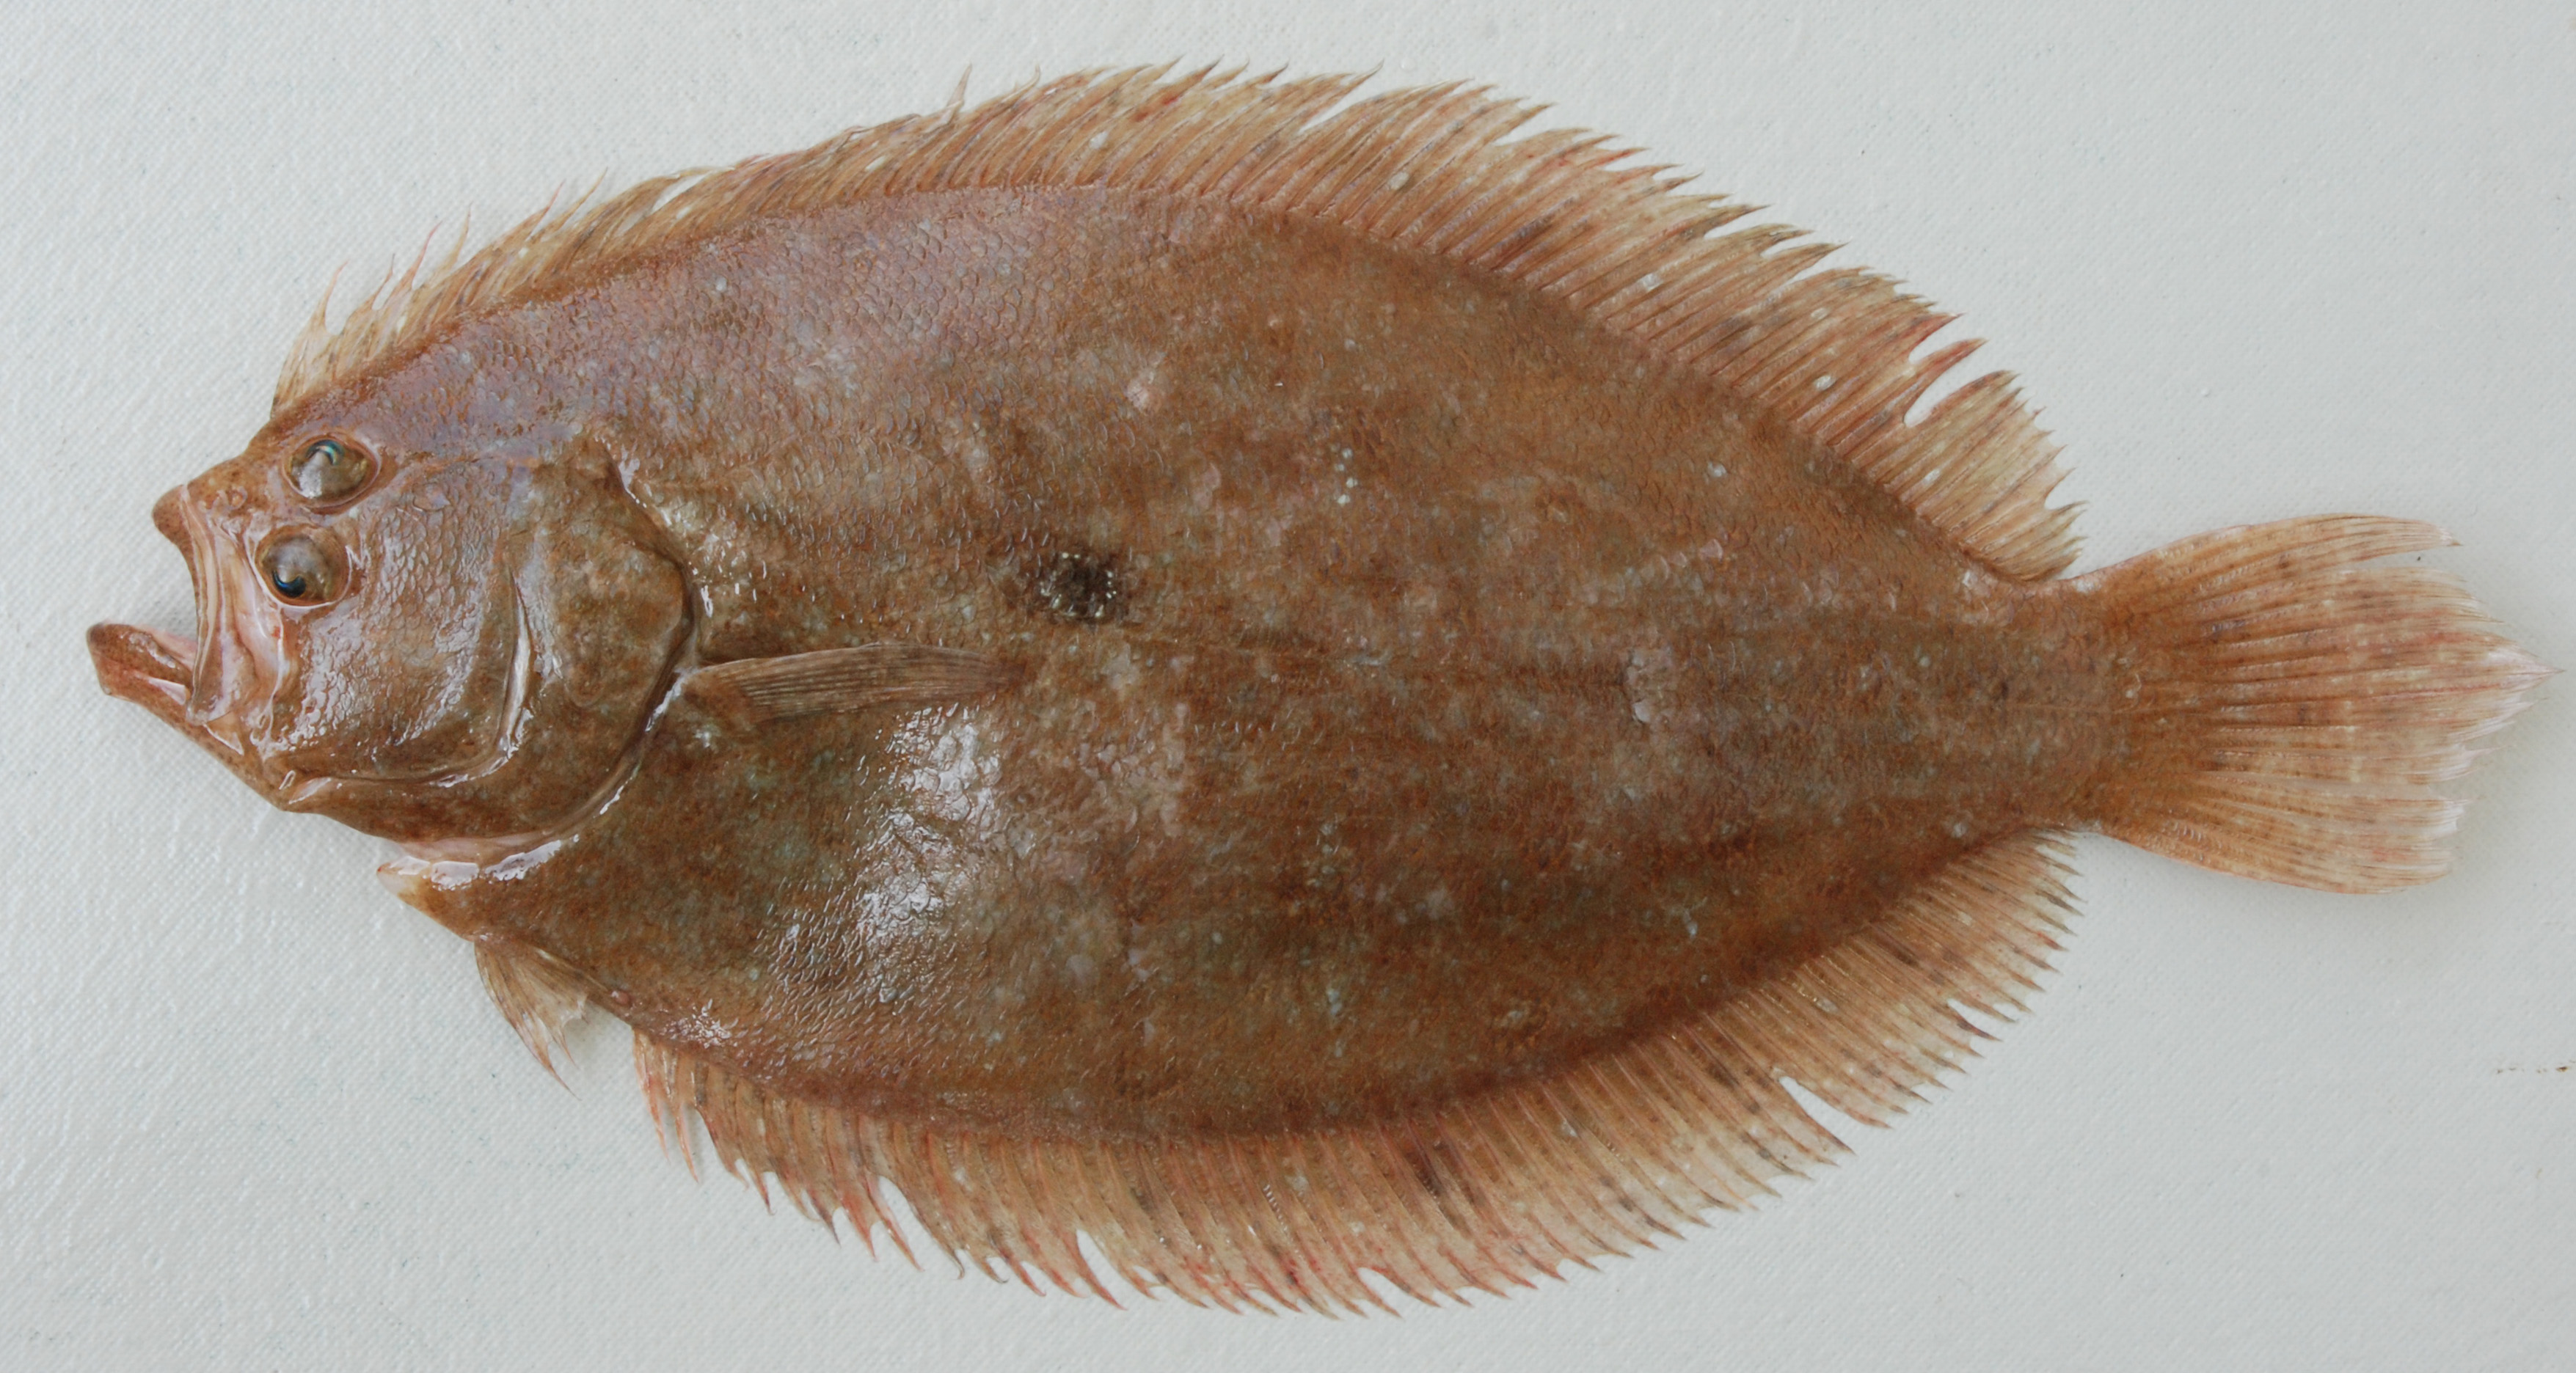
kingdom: Animalia
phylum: Chordata
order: Pleuronectiformes
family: Paralichthyidae
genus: Pseudorhombus
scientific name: Pseudorhombus elevatus
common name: Deep flounder
